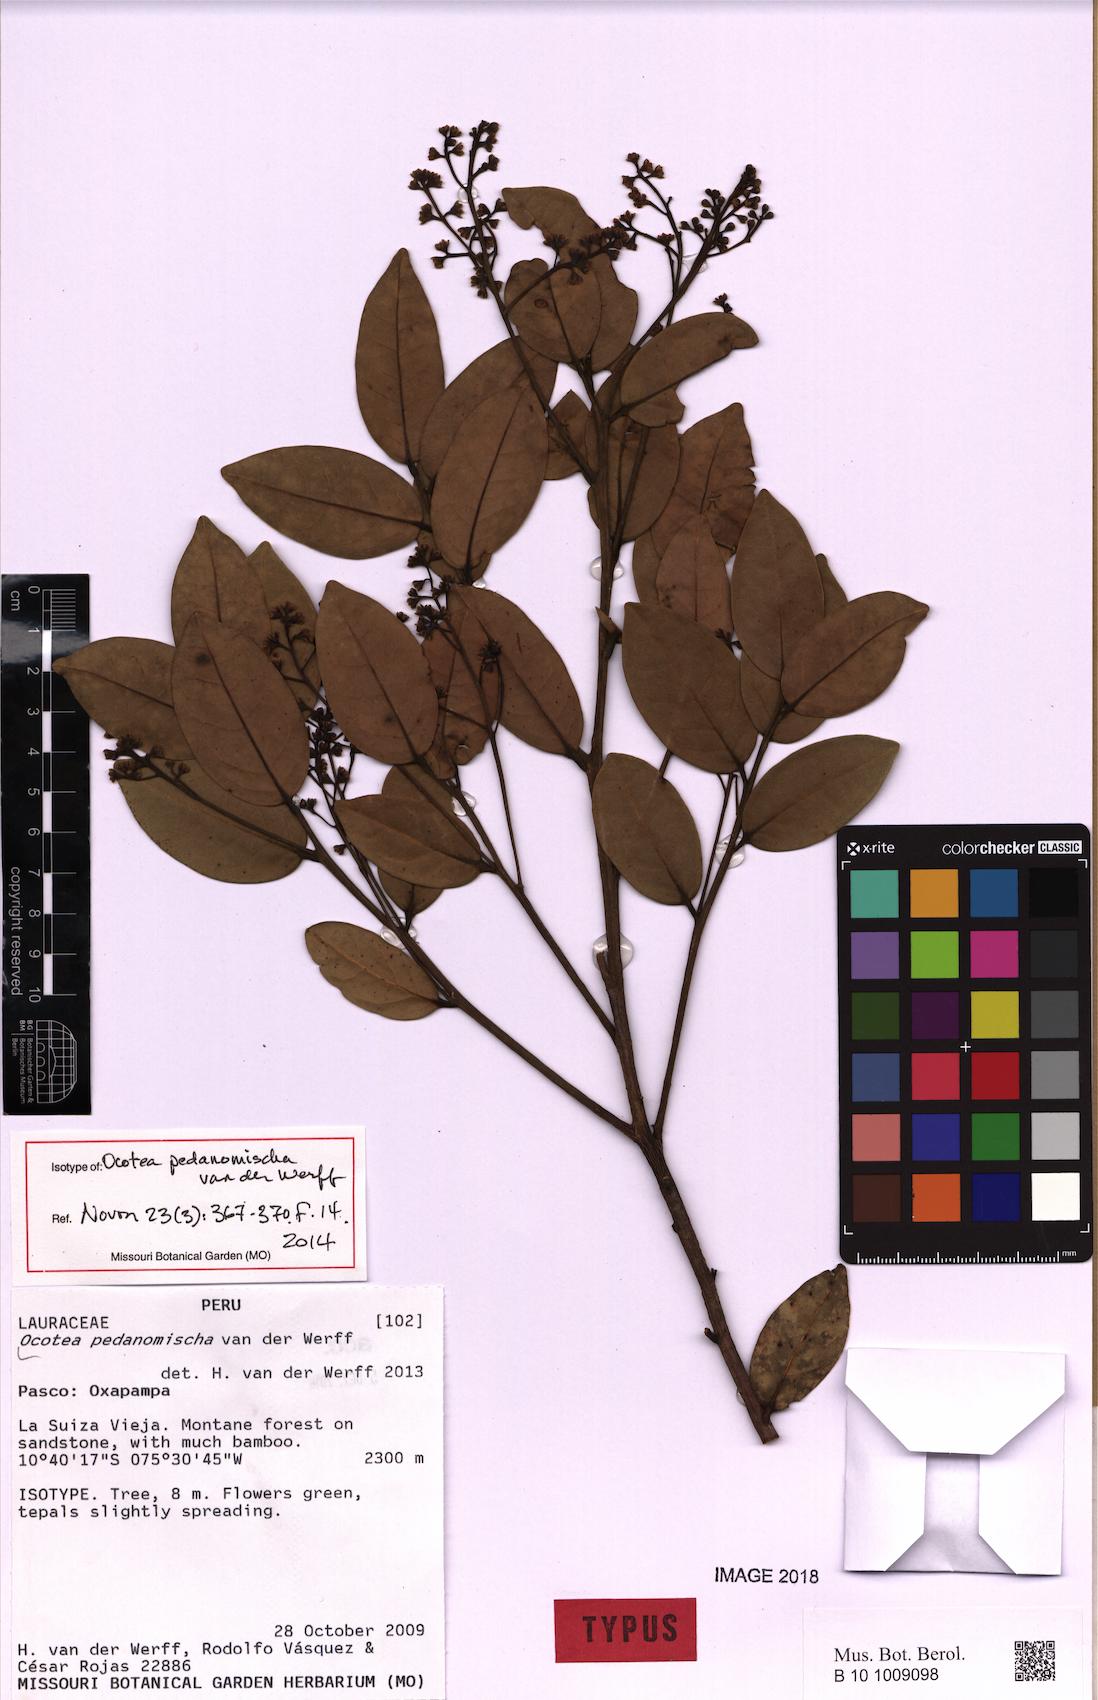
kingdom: Plantae
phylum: Tracheophyta
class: Magnoliopsida
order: Laurales
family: Lauraceae
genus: Ocotea
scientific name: Ocotea pedanomischa
